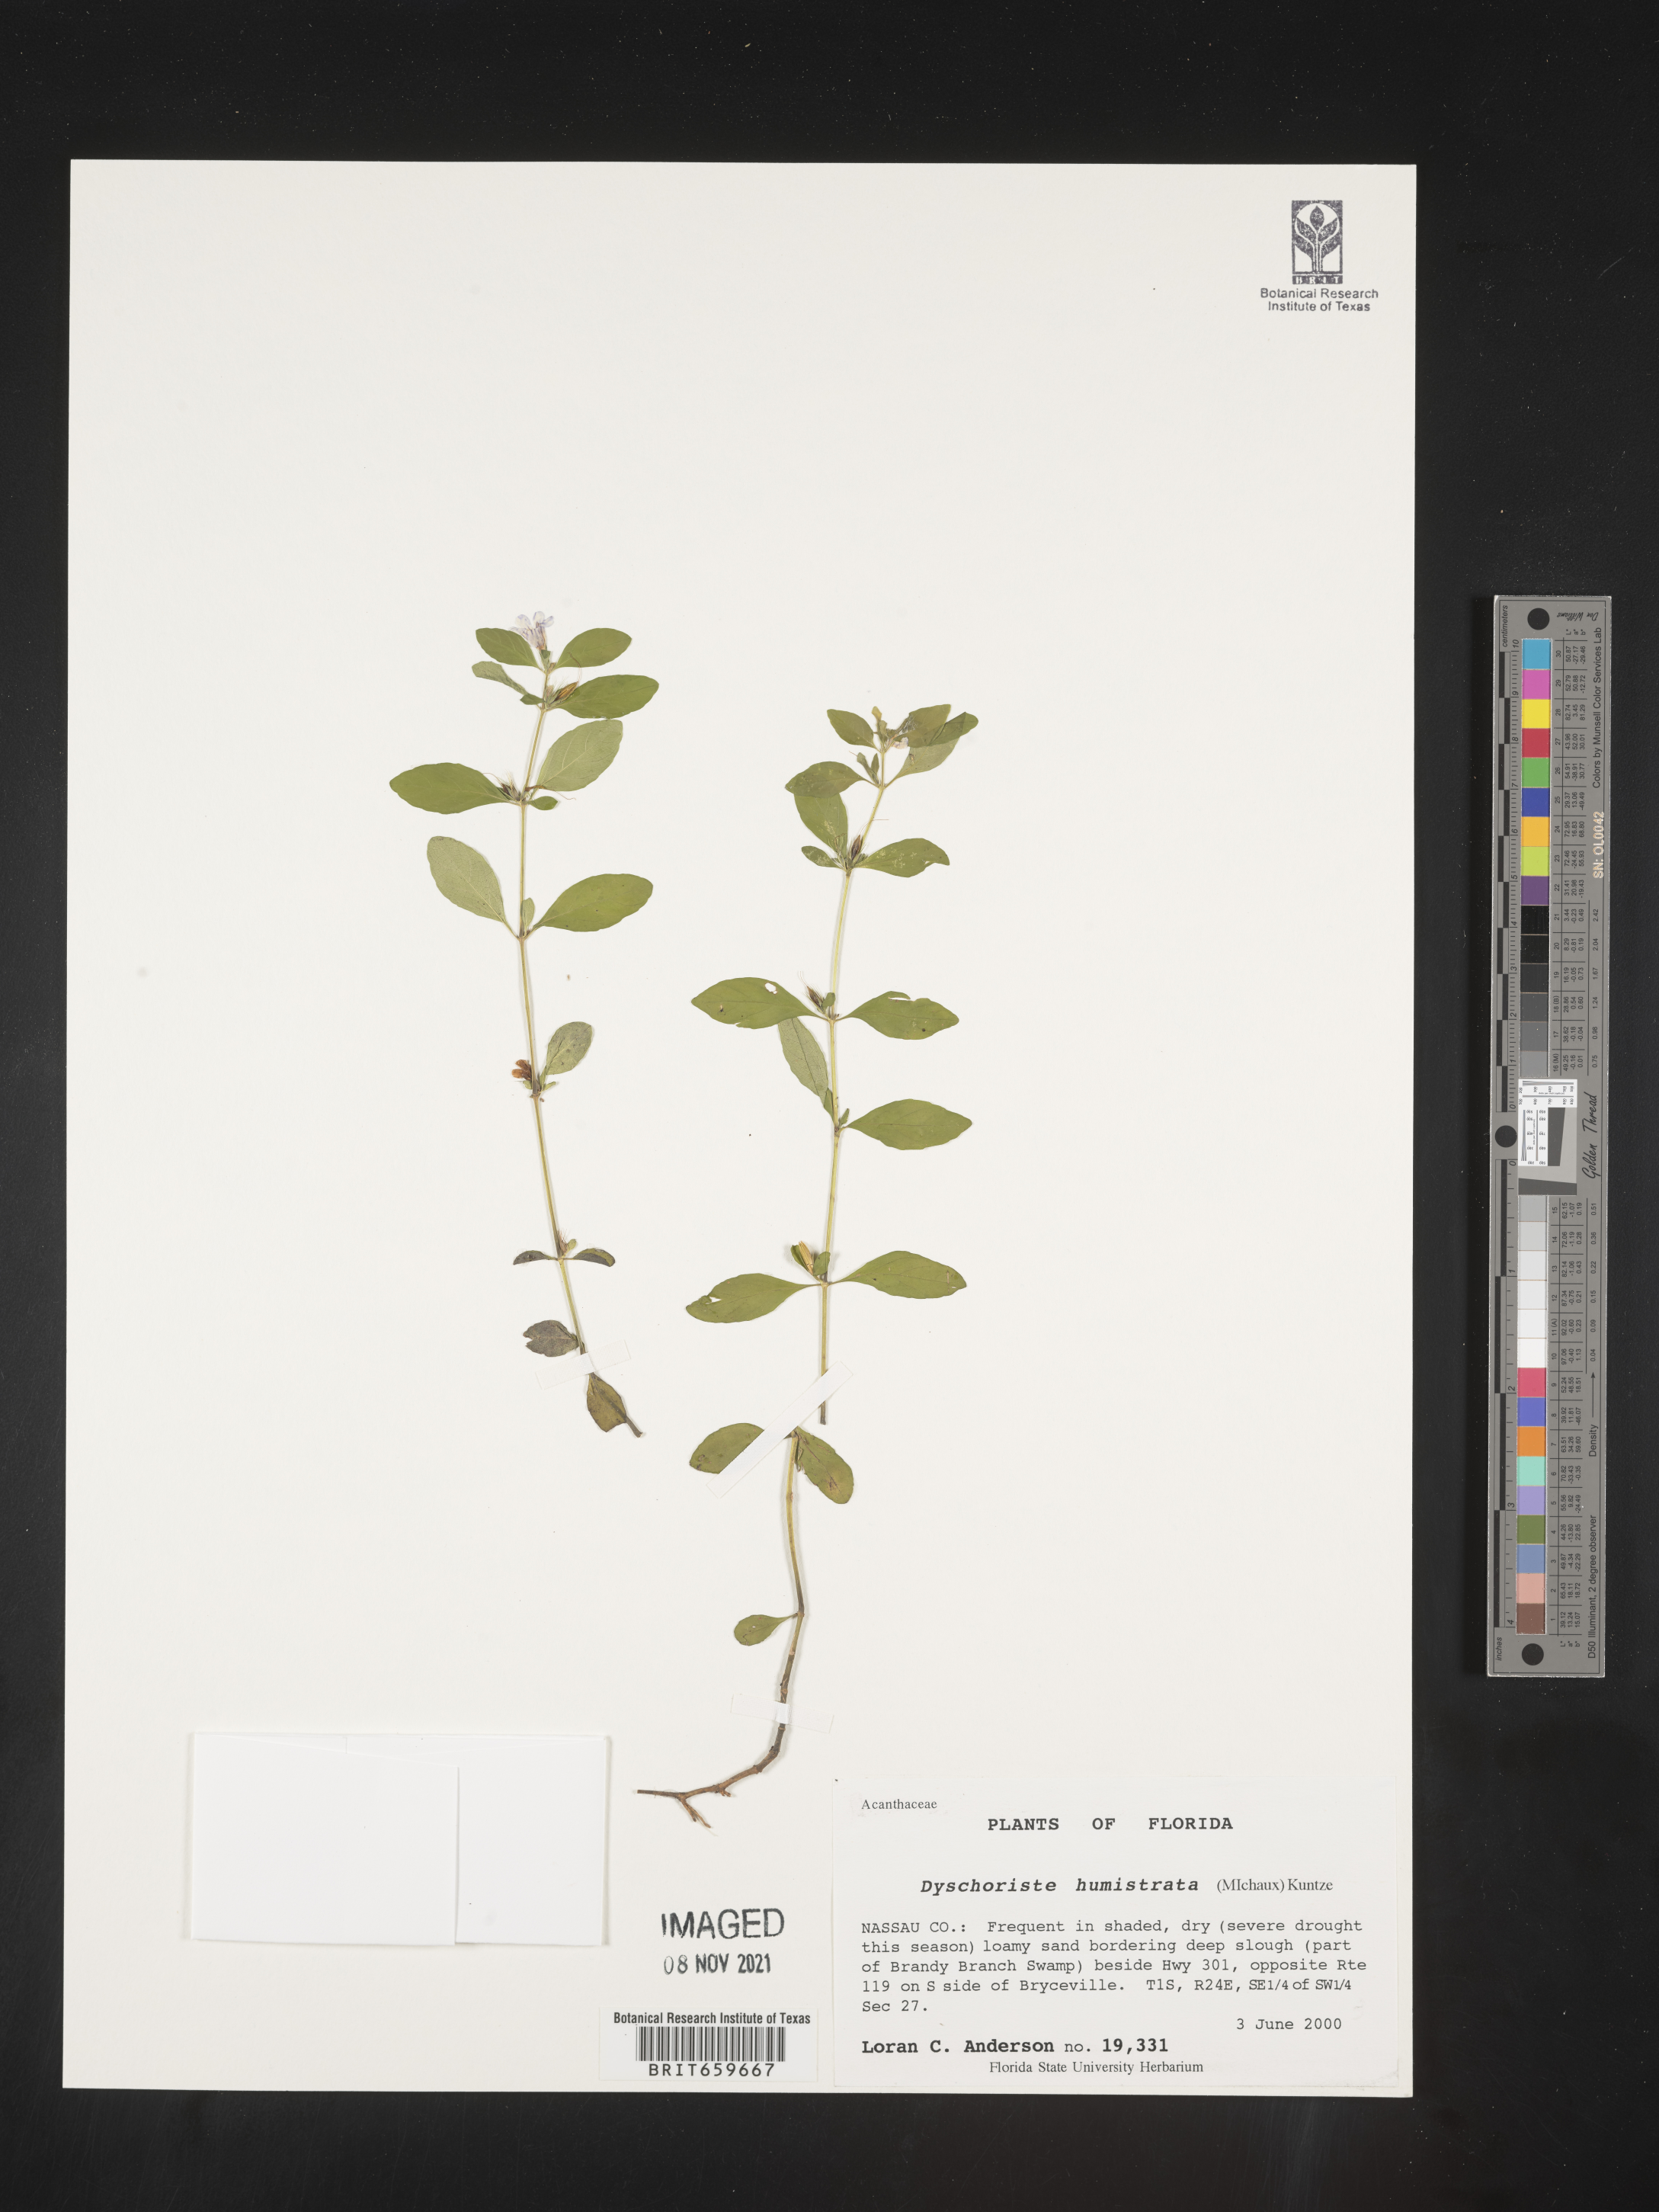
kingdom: Plantae
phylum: Tracheophyta
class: Magnoliopsida
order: Lamiales
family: Acanthaceae
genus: Dyschoriste
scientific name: Dyschoriste
